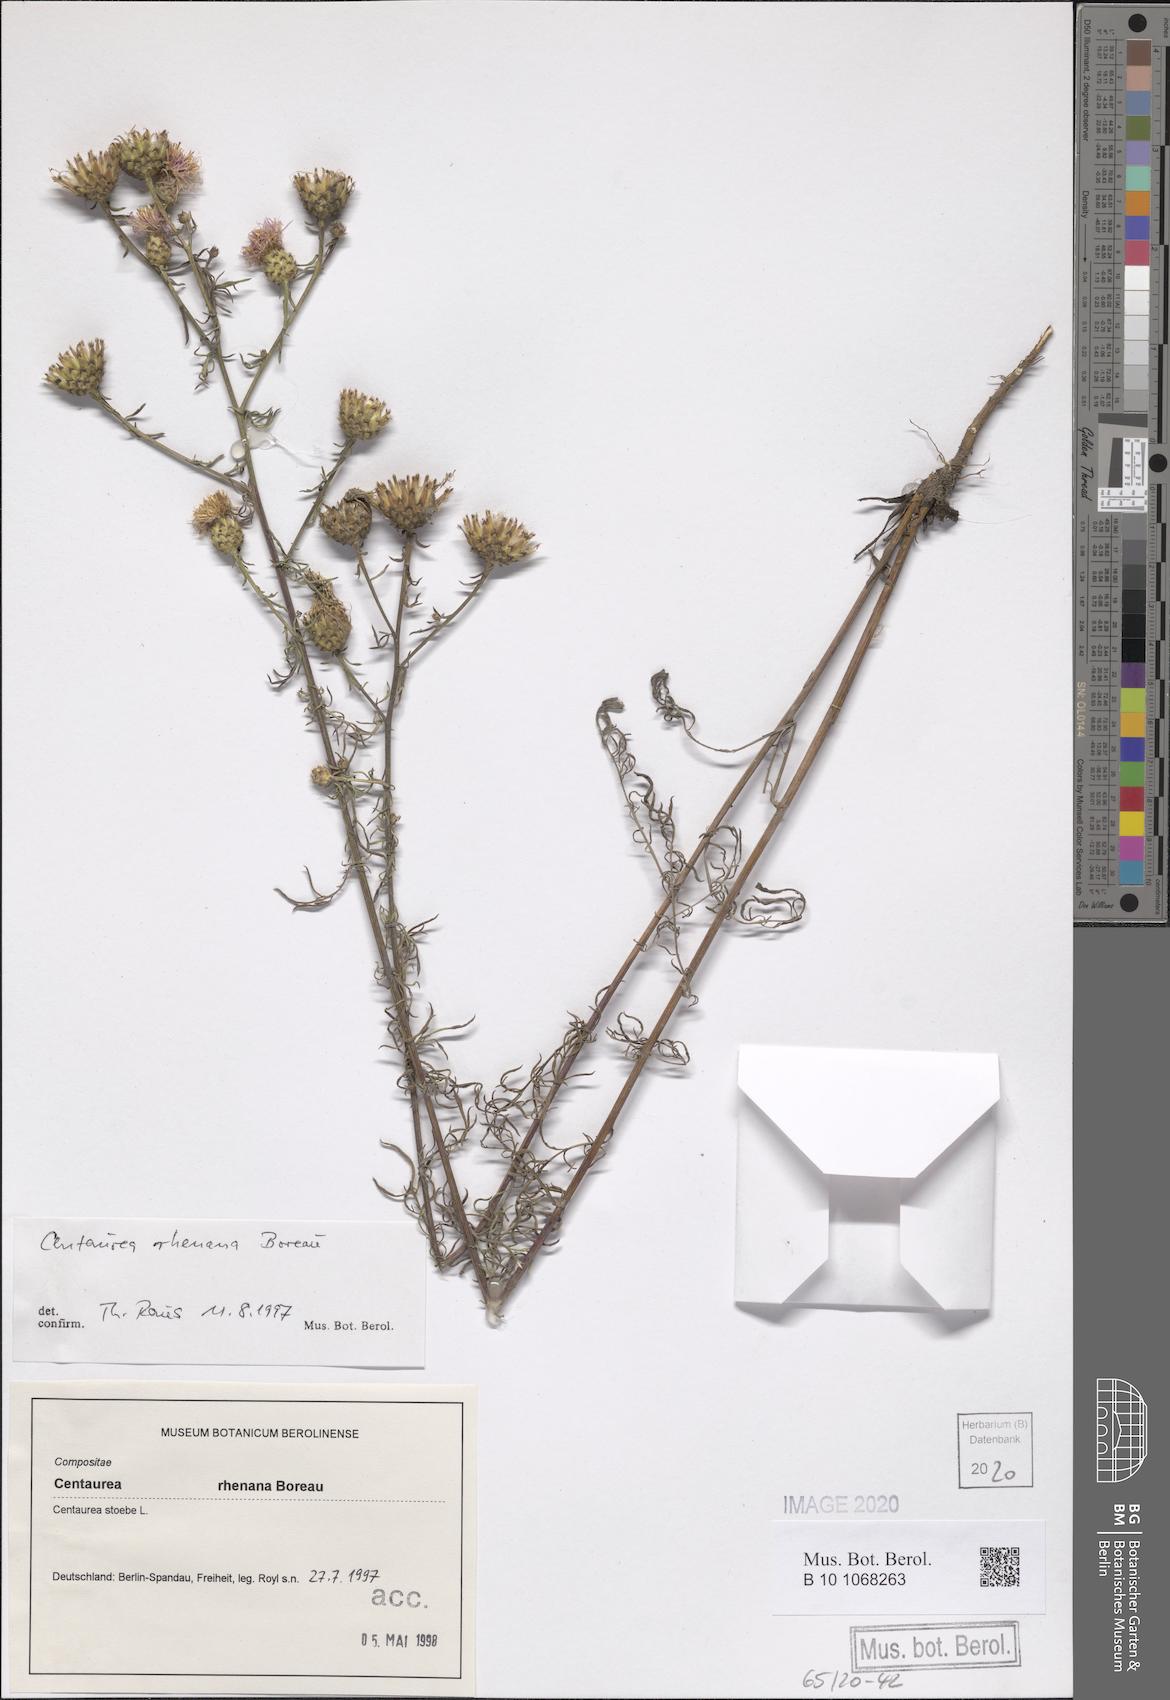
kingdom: Plantae
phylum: Tracheophyta
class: Magnoliopsida
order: Asterales
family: Asteraceae
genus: Centaurea
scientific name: Centaurea stoebe
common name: Spotted knapweed
